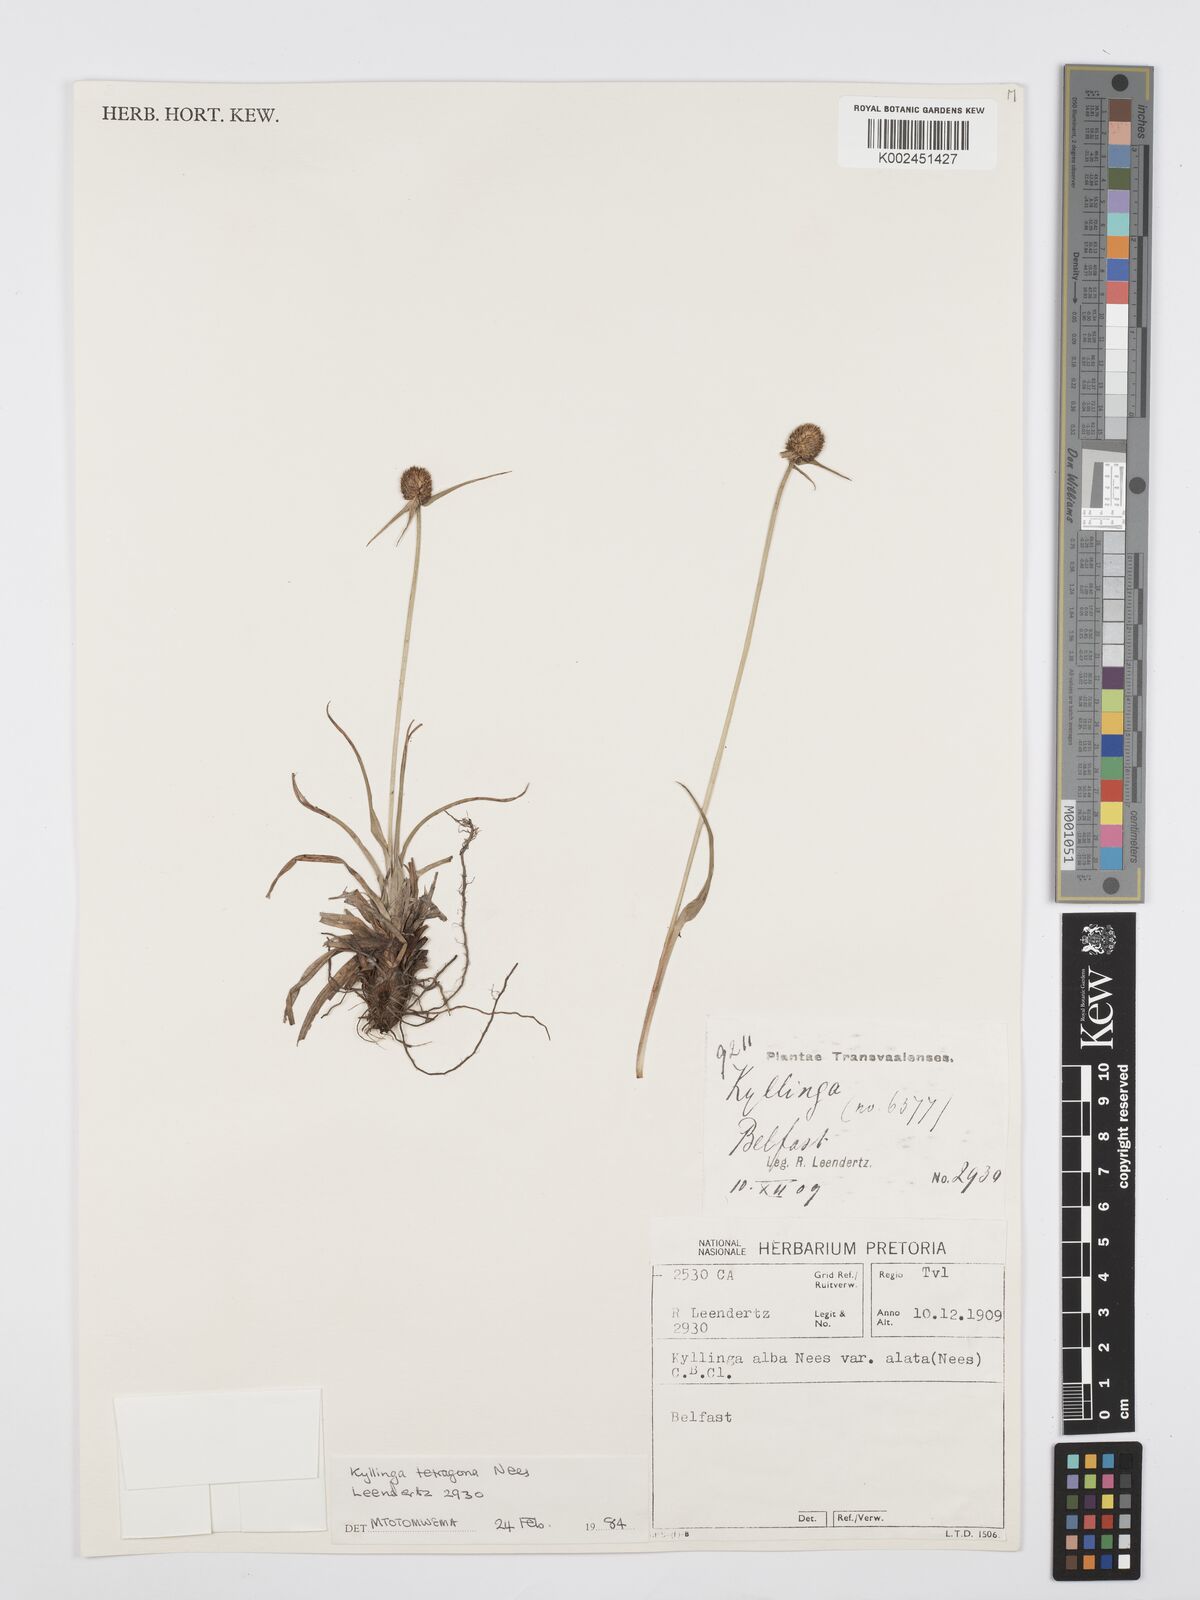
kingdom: Plantae
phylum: Tracheophyta
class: Liliopsida
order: Poales
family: Cyperaceae
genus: Cyperus
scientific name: Cyperus alatus
